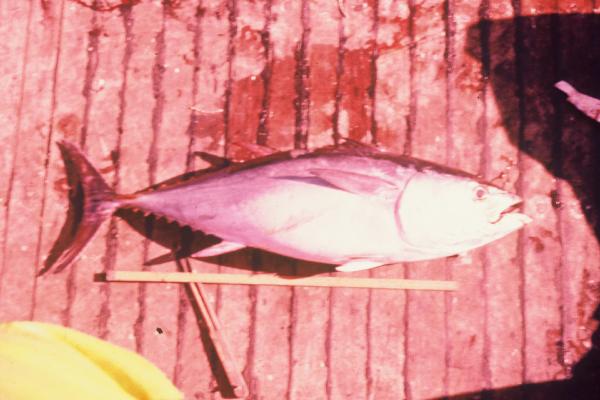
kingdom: Animalia
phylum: Chordata
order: Perciformes
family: Scombridae
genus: Thunnus
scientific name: Thunnus obesus
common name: Bigeye tuna
